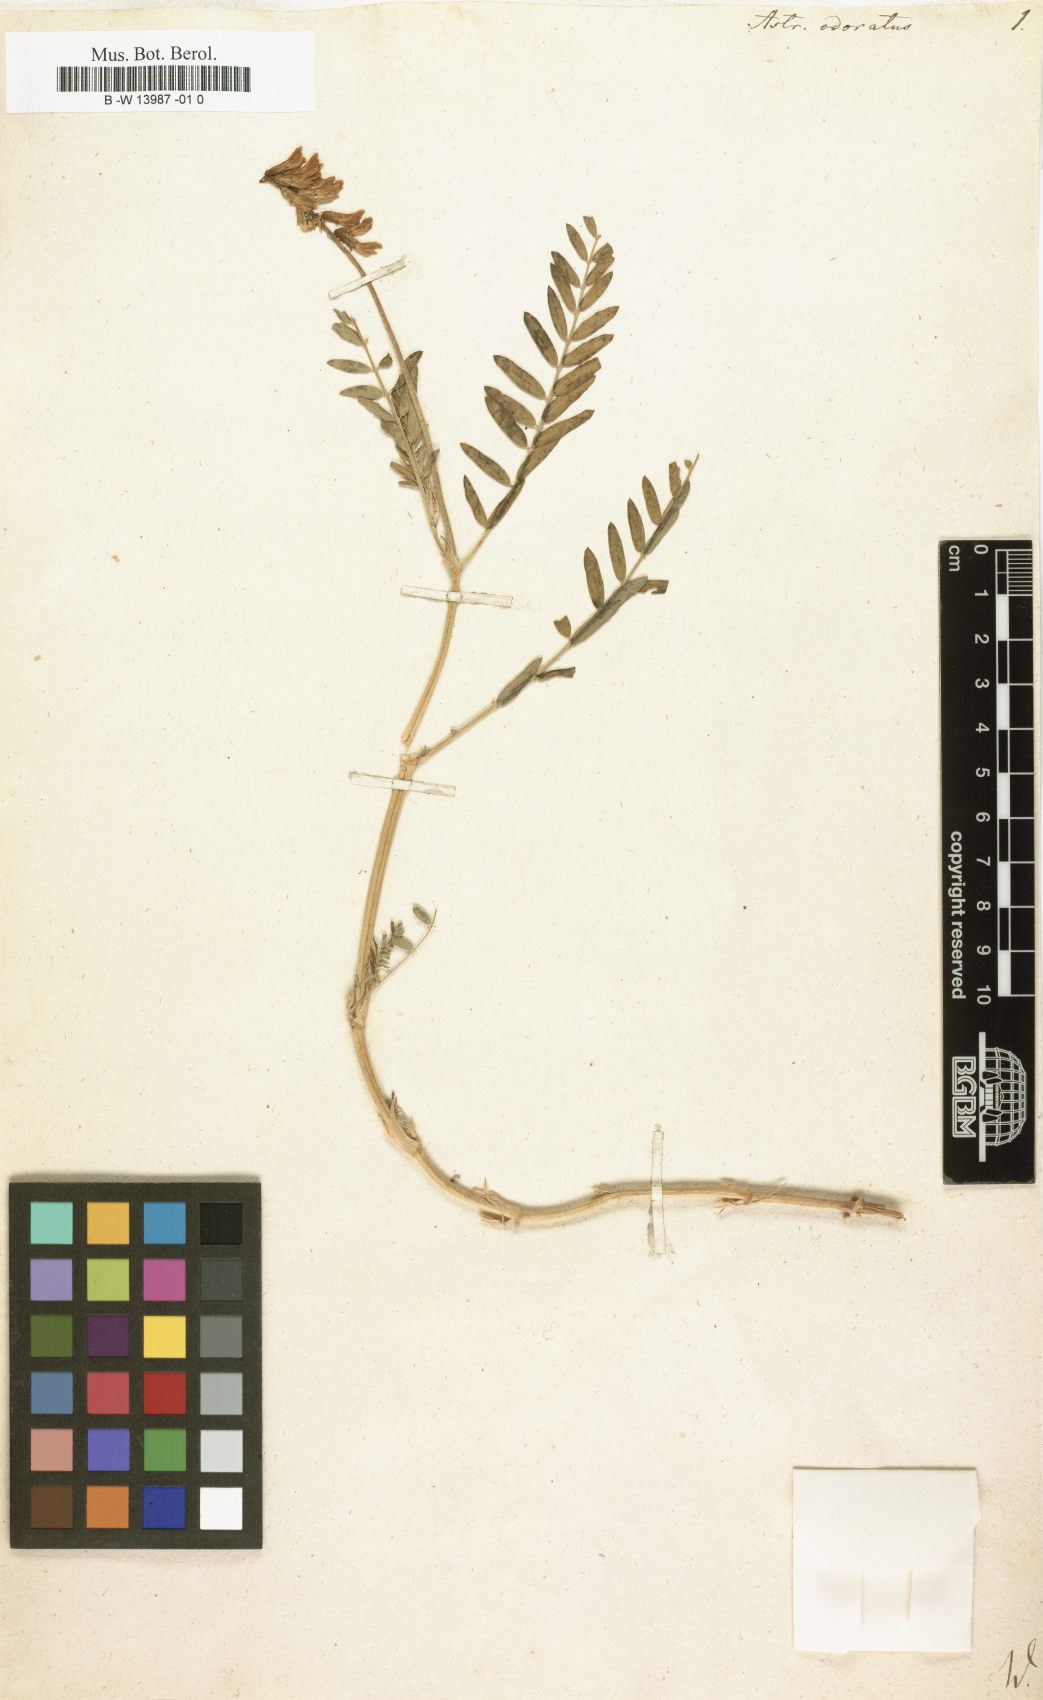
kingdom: Plantae
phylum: Tracheophyta
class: Magnoliopsida
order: Fabales
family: Fabaceae
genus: Astragalus
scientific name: Astragalus odoratus
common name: Lesser milk-vetch
